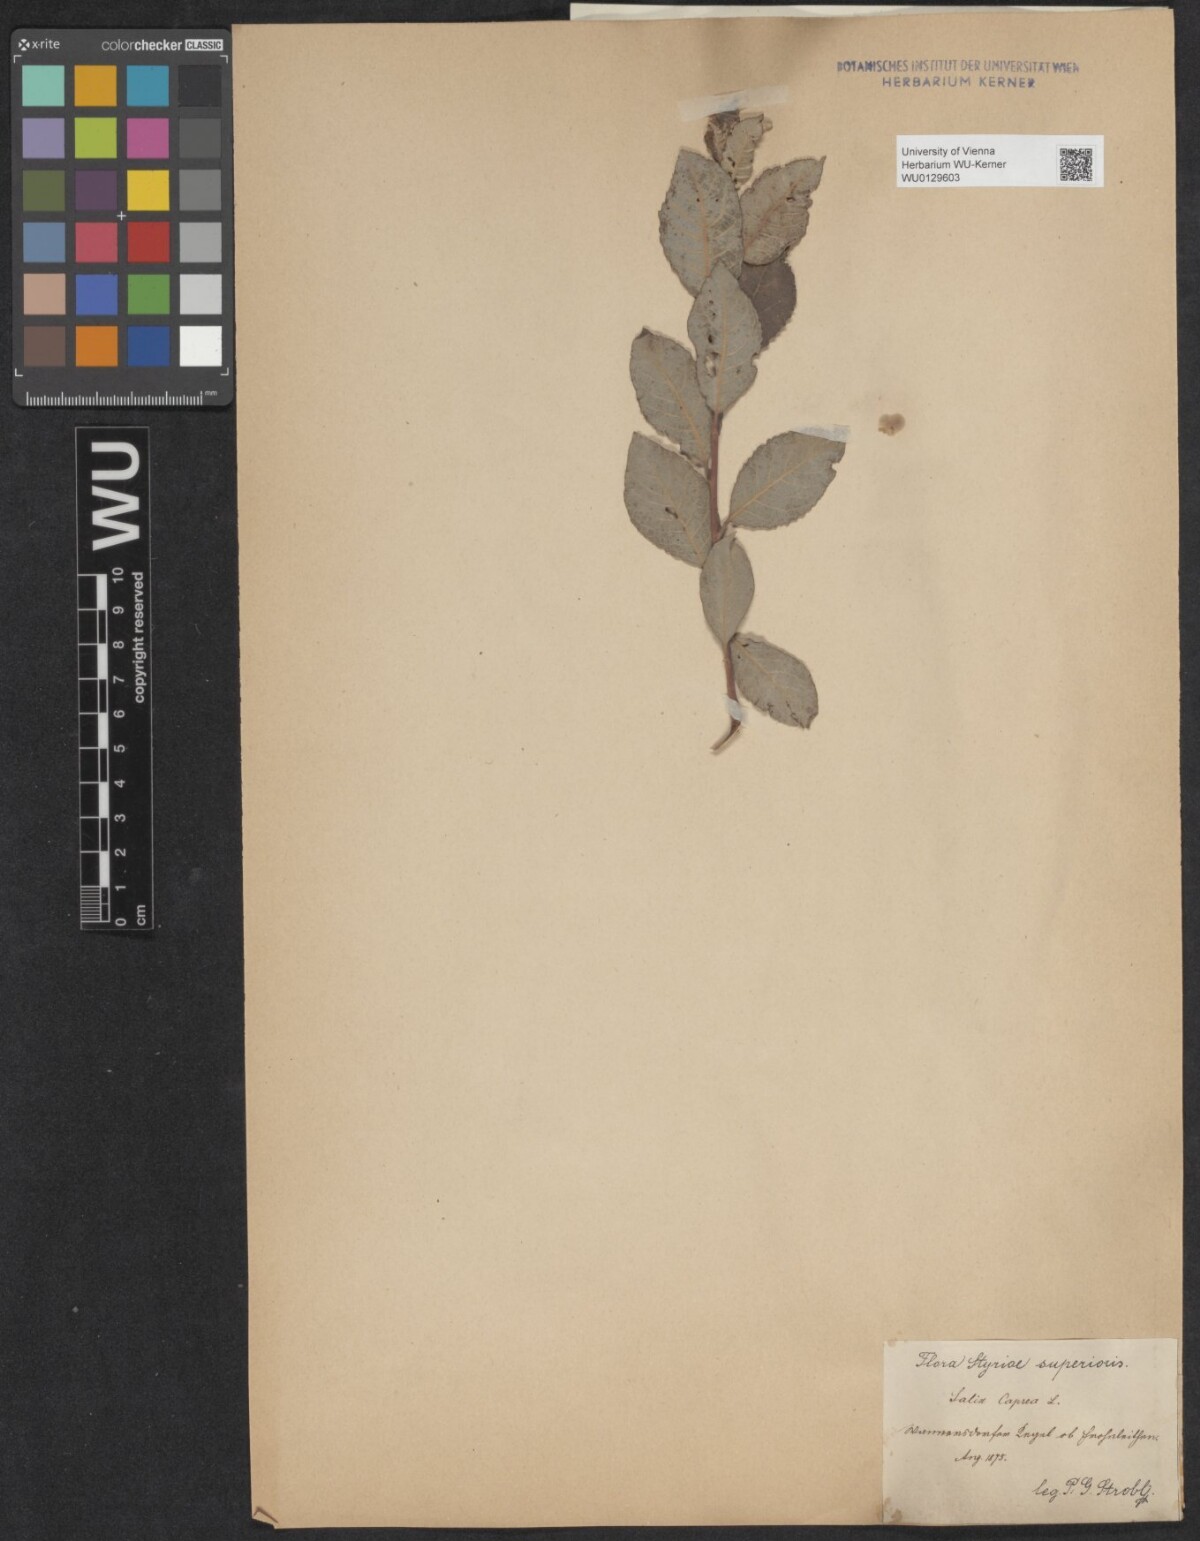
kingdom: Plantae
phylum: Tracheophyta
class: Magnoliopsida
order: Malpighiales
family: Salicaceae
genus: Salix
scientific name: Salix caprea
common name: Goat willow
